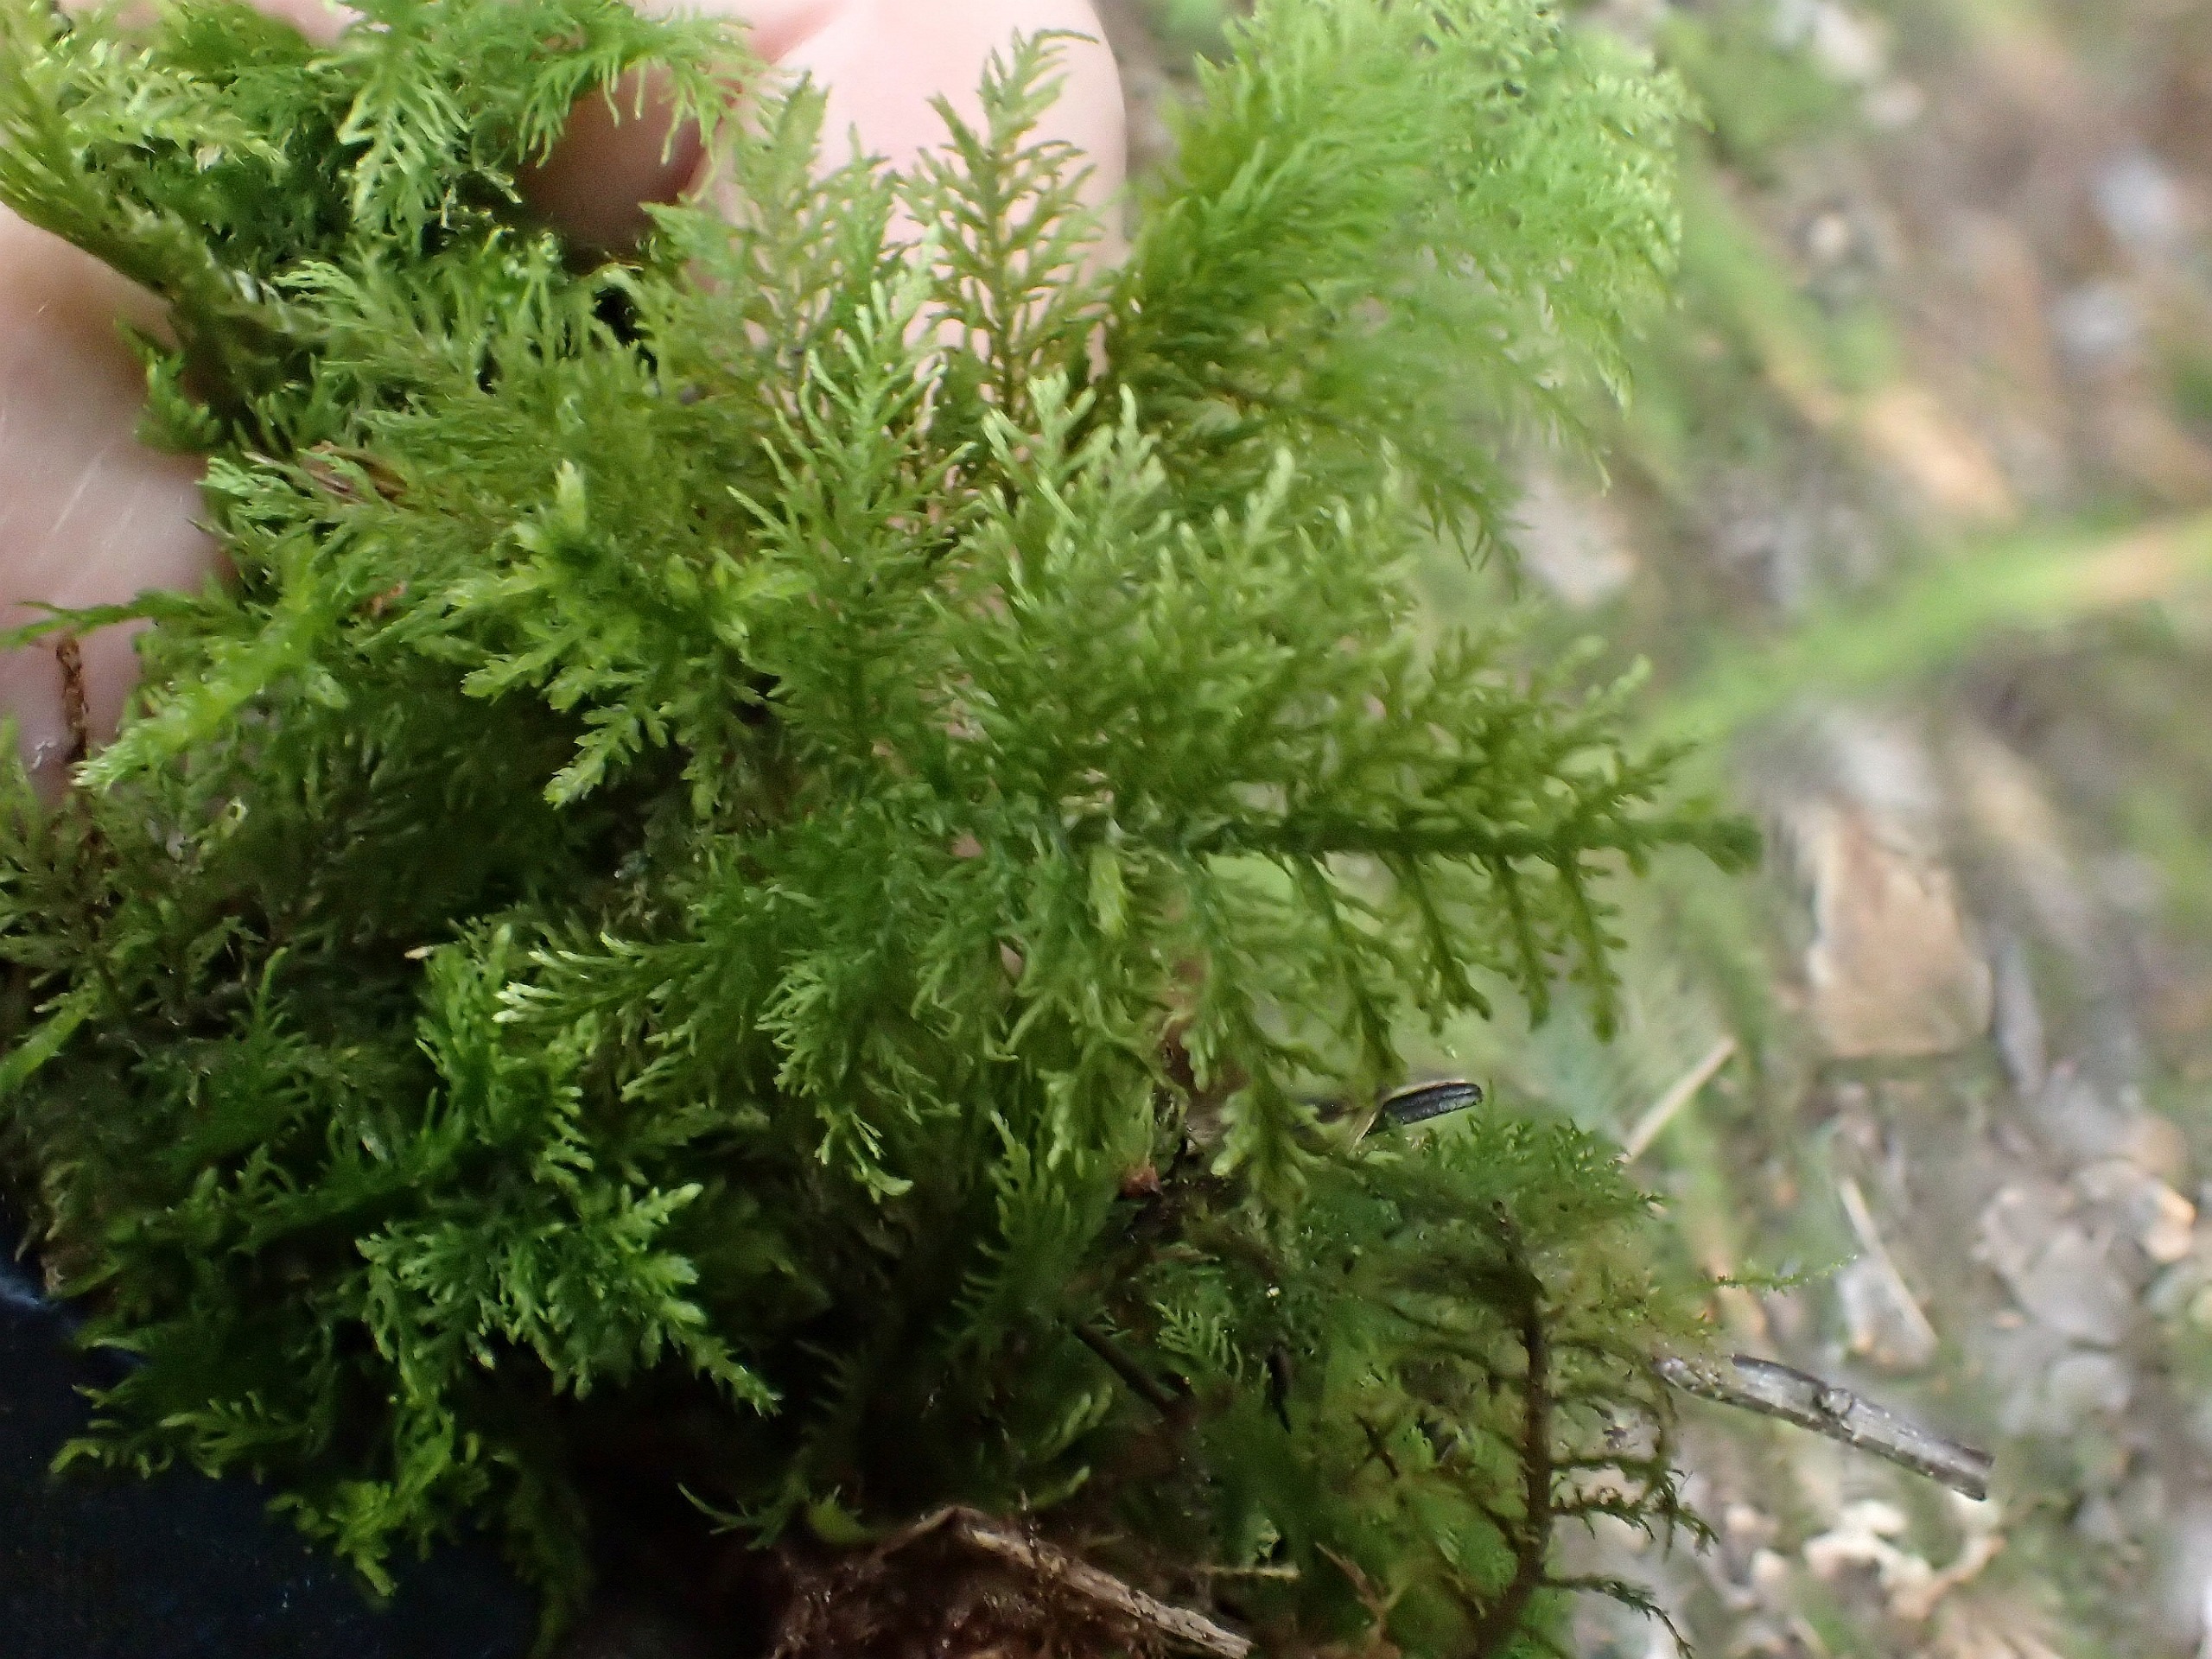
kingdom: Plantae
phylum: Bryophyta
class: Bryopsida
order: Hypnales
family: Thuidiaceae
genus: Thuidium
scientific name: Thuidium tamariscinum
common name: Pryd-bregnemos
